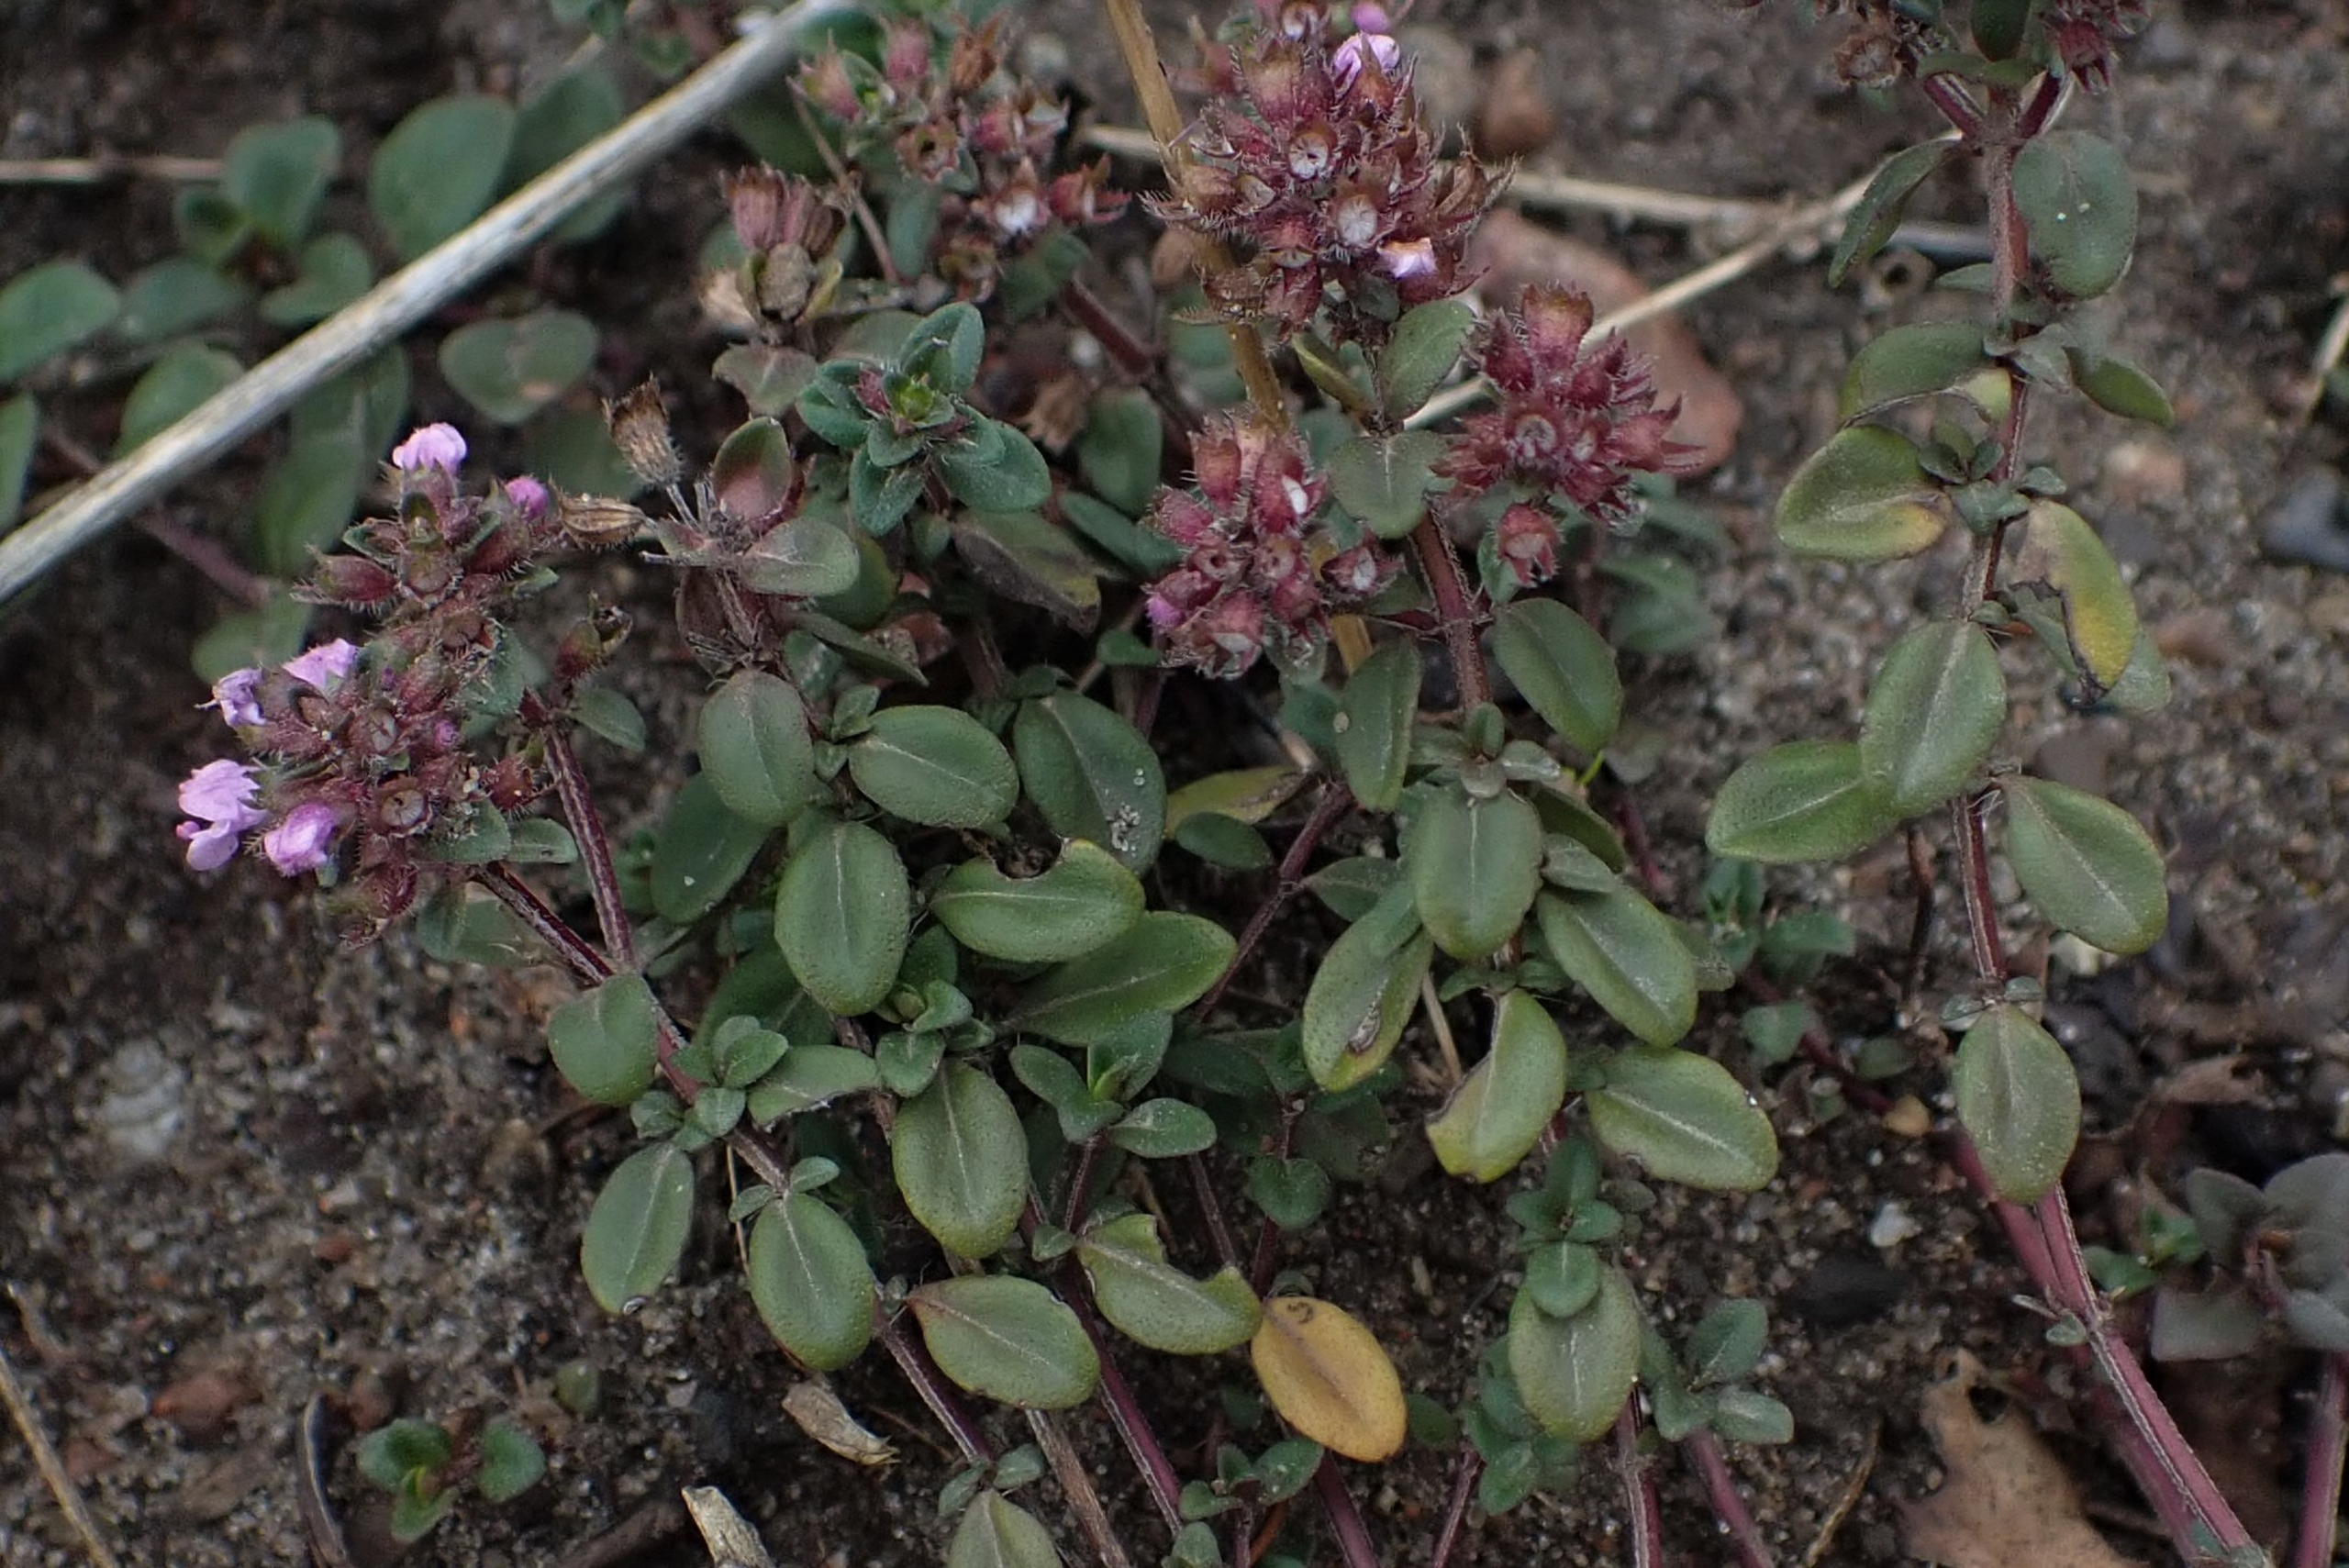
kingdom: Plantae
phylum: Tracheophyta
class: Magnoliopsida
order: Lamiales
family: Lamiaceae
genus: Thymus
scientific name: Thymus pulegioides
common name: Bredbladet timian
